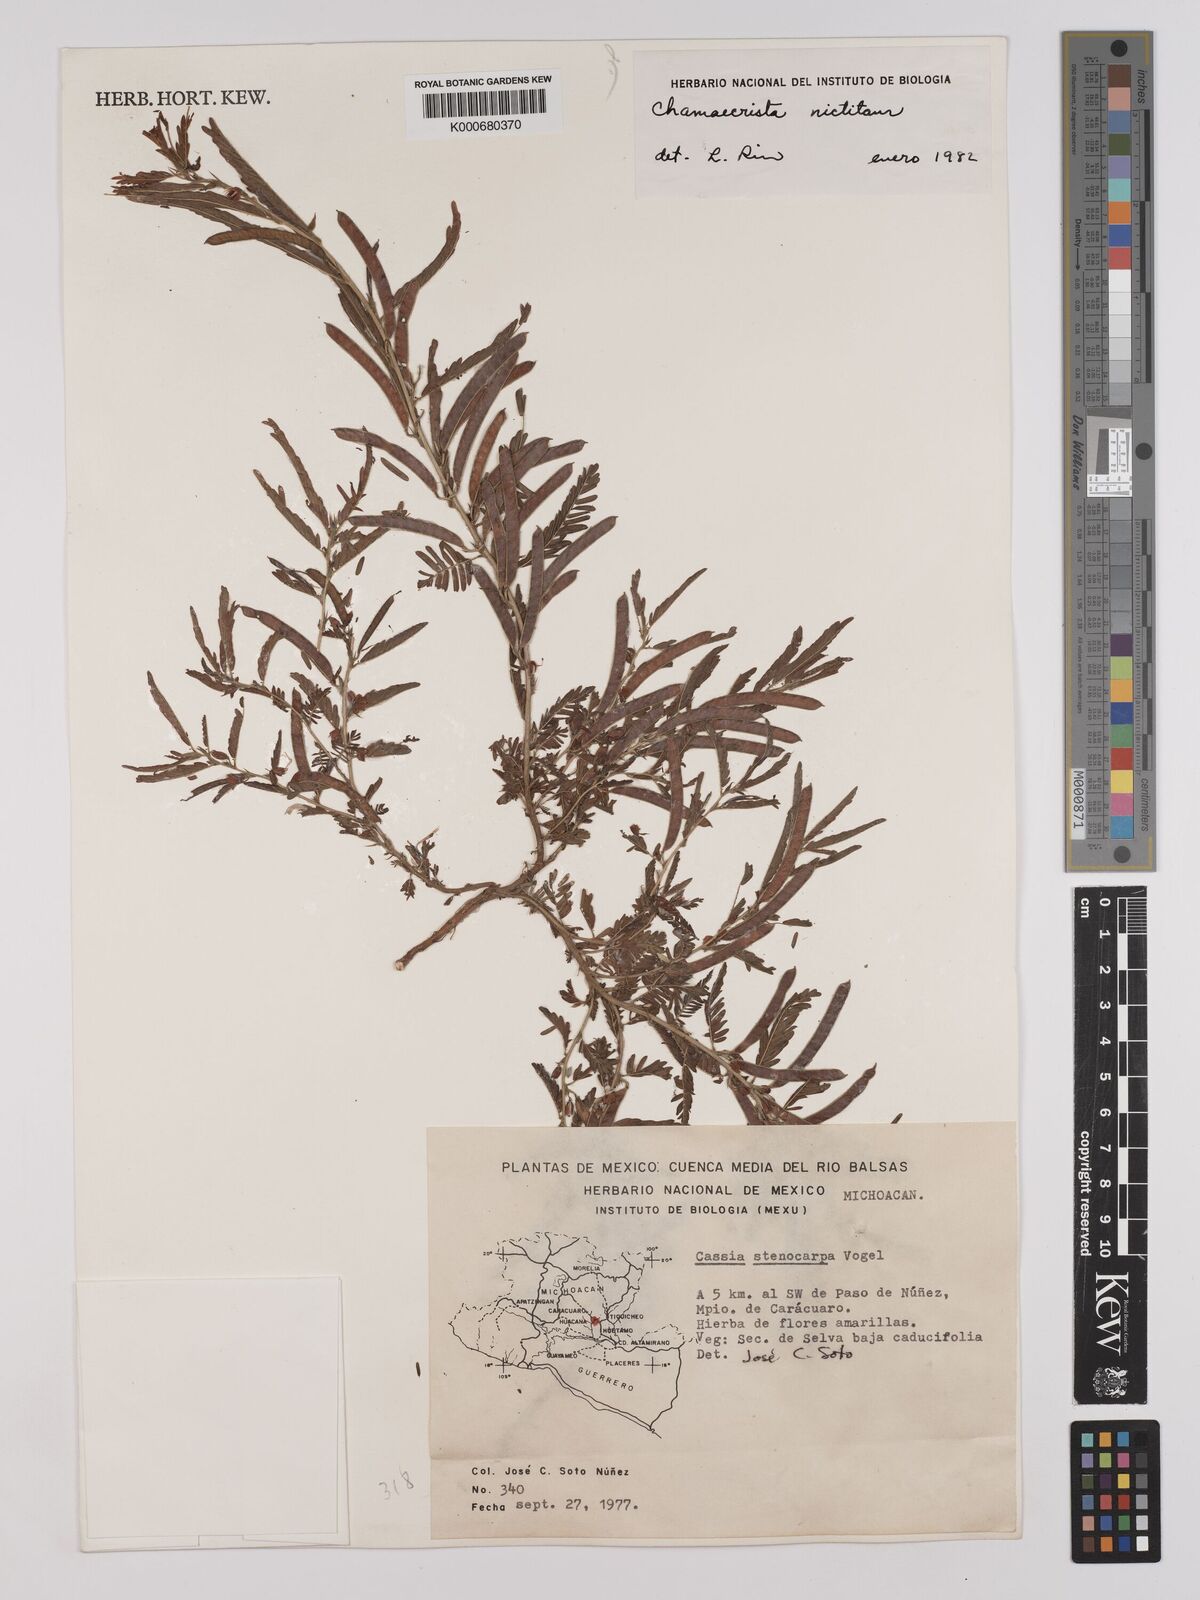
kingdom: Plantae
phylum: Tracheophyta
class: Magnoliopsida
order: Fabales
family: Fabaceae
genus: Chamaecrista
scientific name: Chamaecrista nictitans
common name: Sensitive cassia
